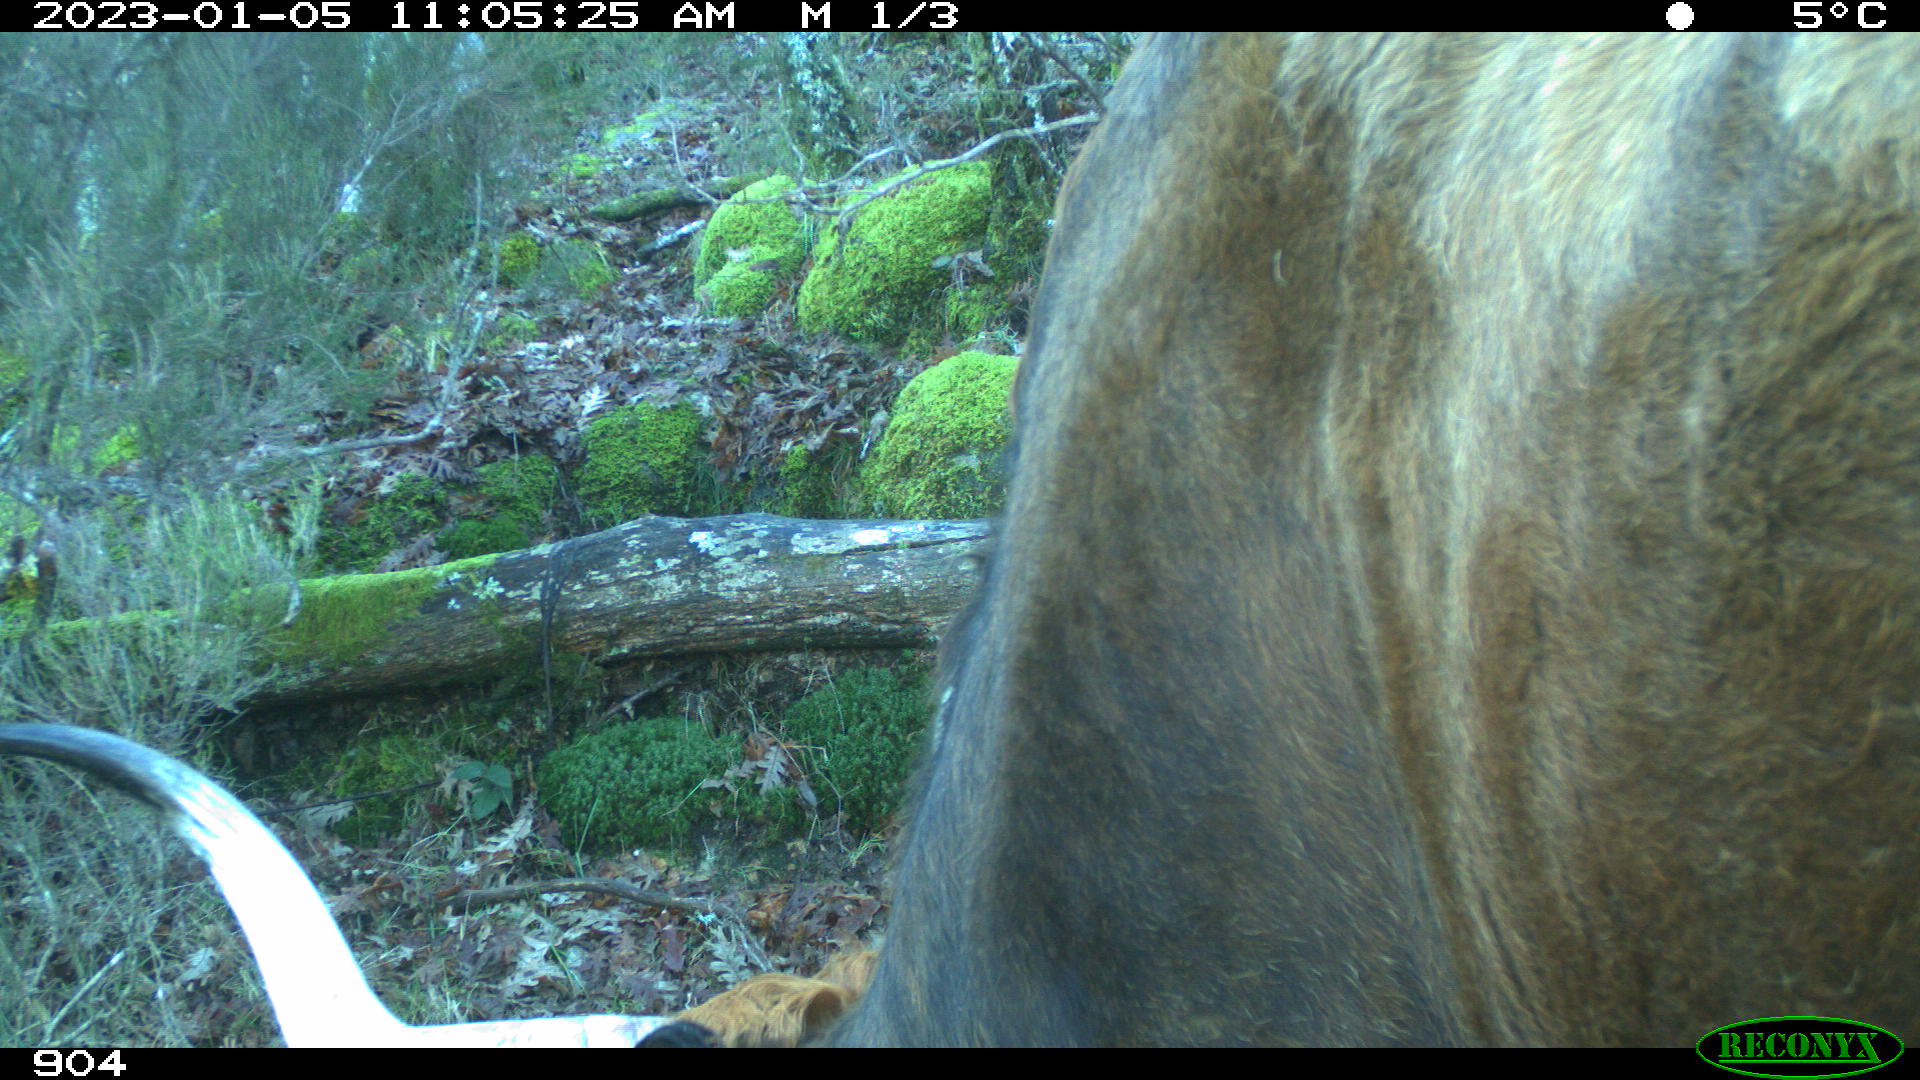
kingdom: Animalia
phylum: Chordata
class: Mammalia
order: Artiodactyla
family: Bovidae
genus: Bos
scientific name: Bos taurus
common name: Domesticated cattle
